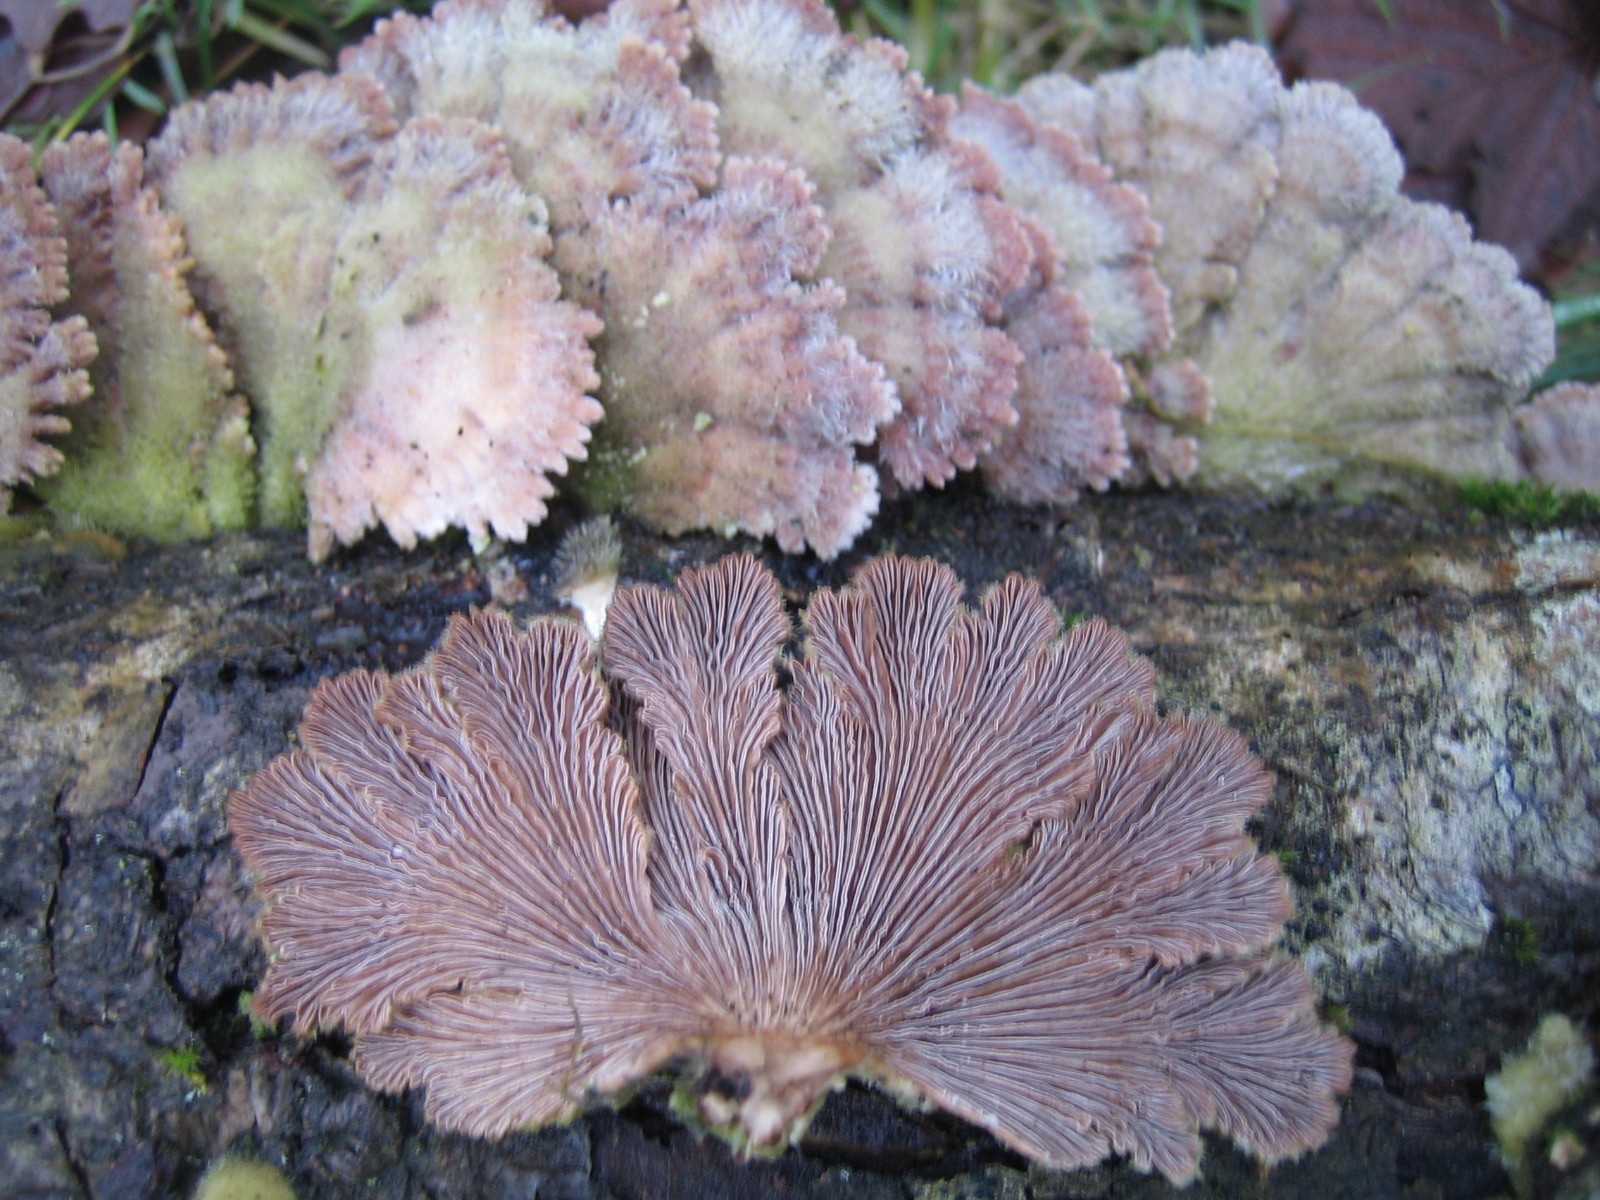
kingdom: Fungi
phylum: Basidiomycota
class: Agaricomycetes
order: Agaricales
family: Schizophyllaceae
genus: Schizophyllum
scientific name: Schizophyllum commune
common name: kløvblad
